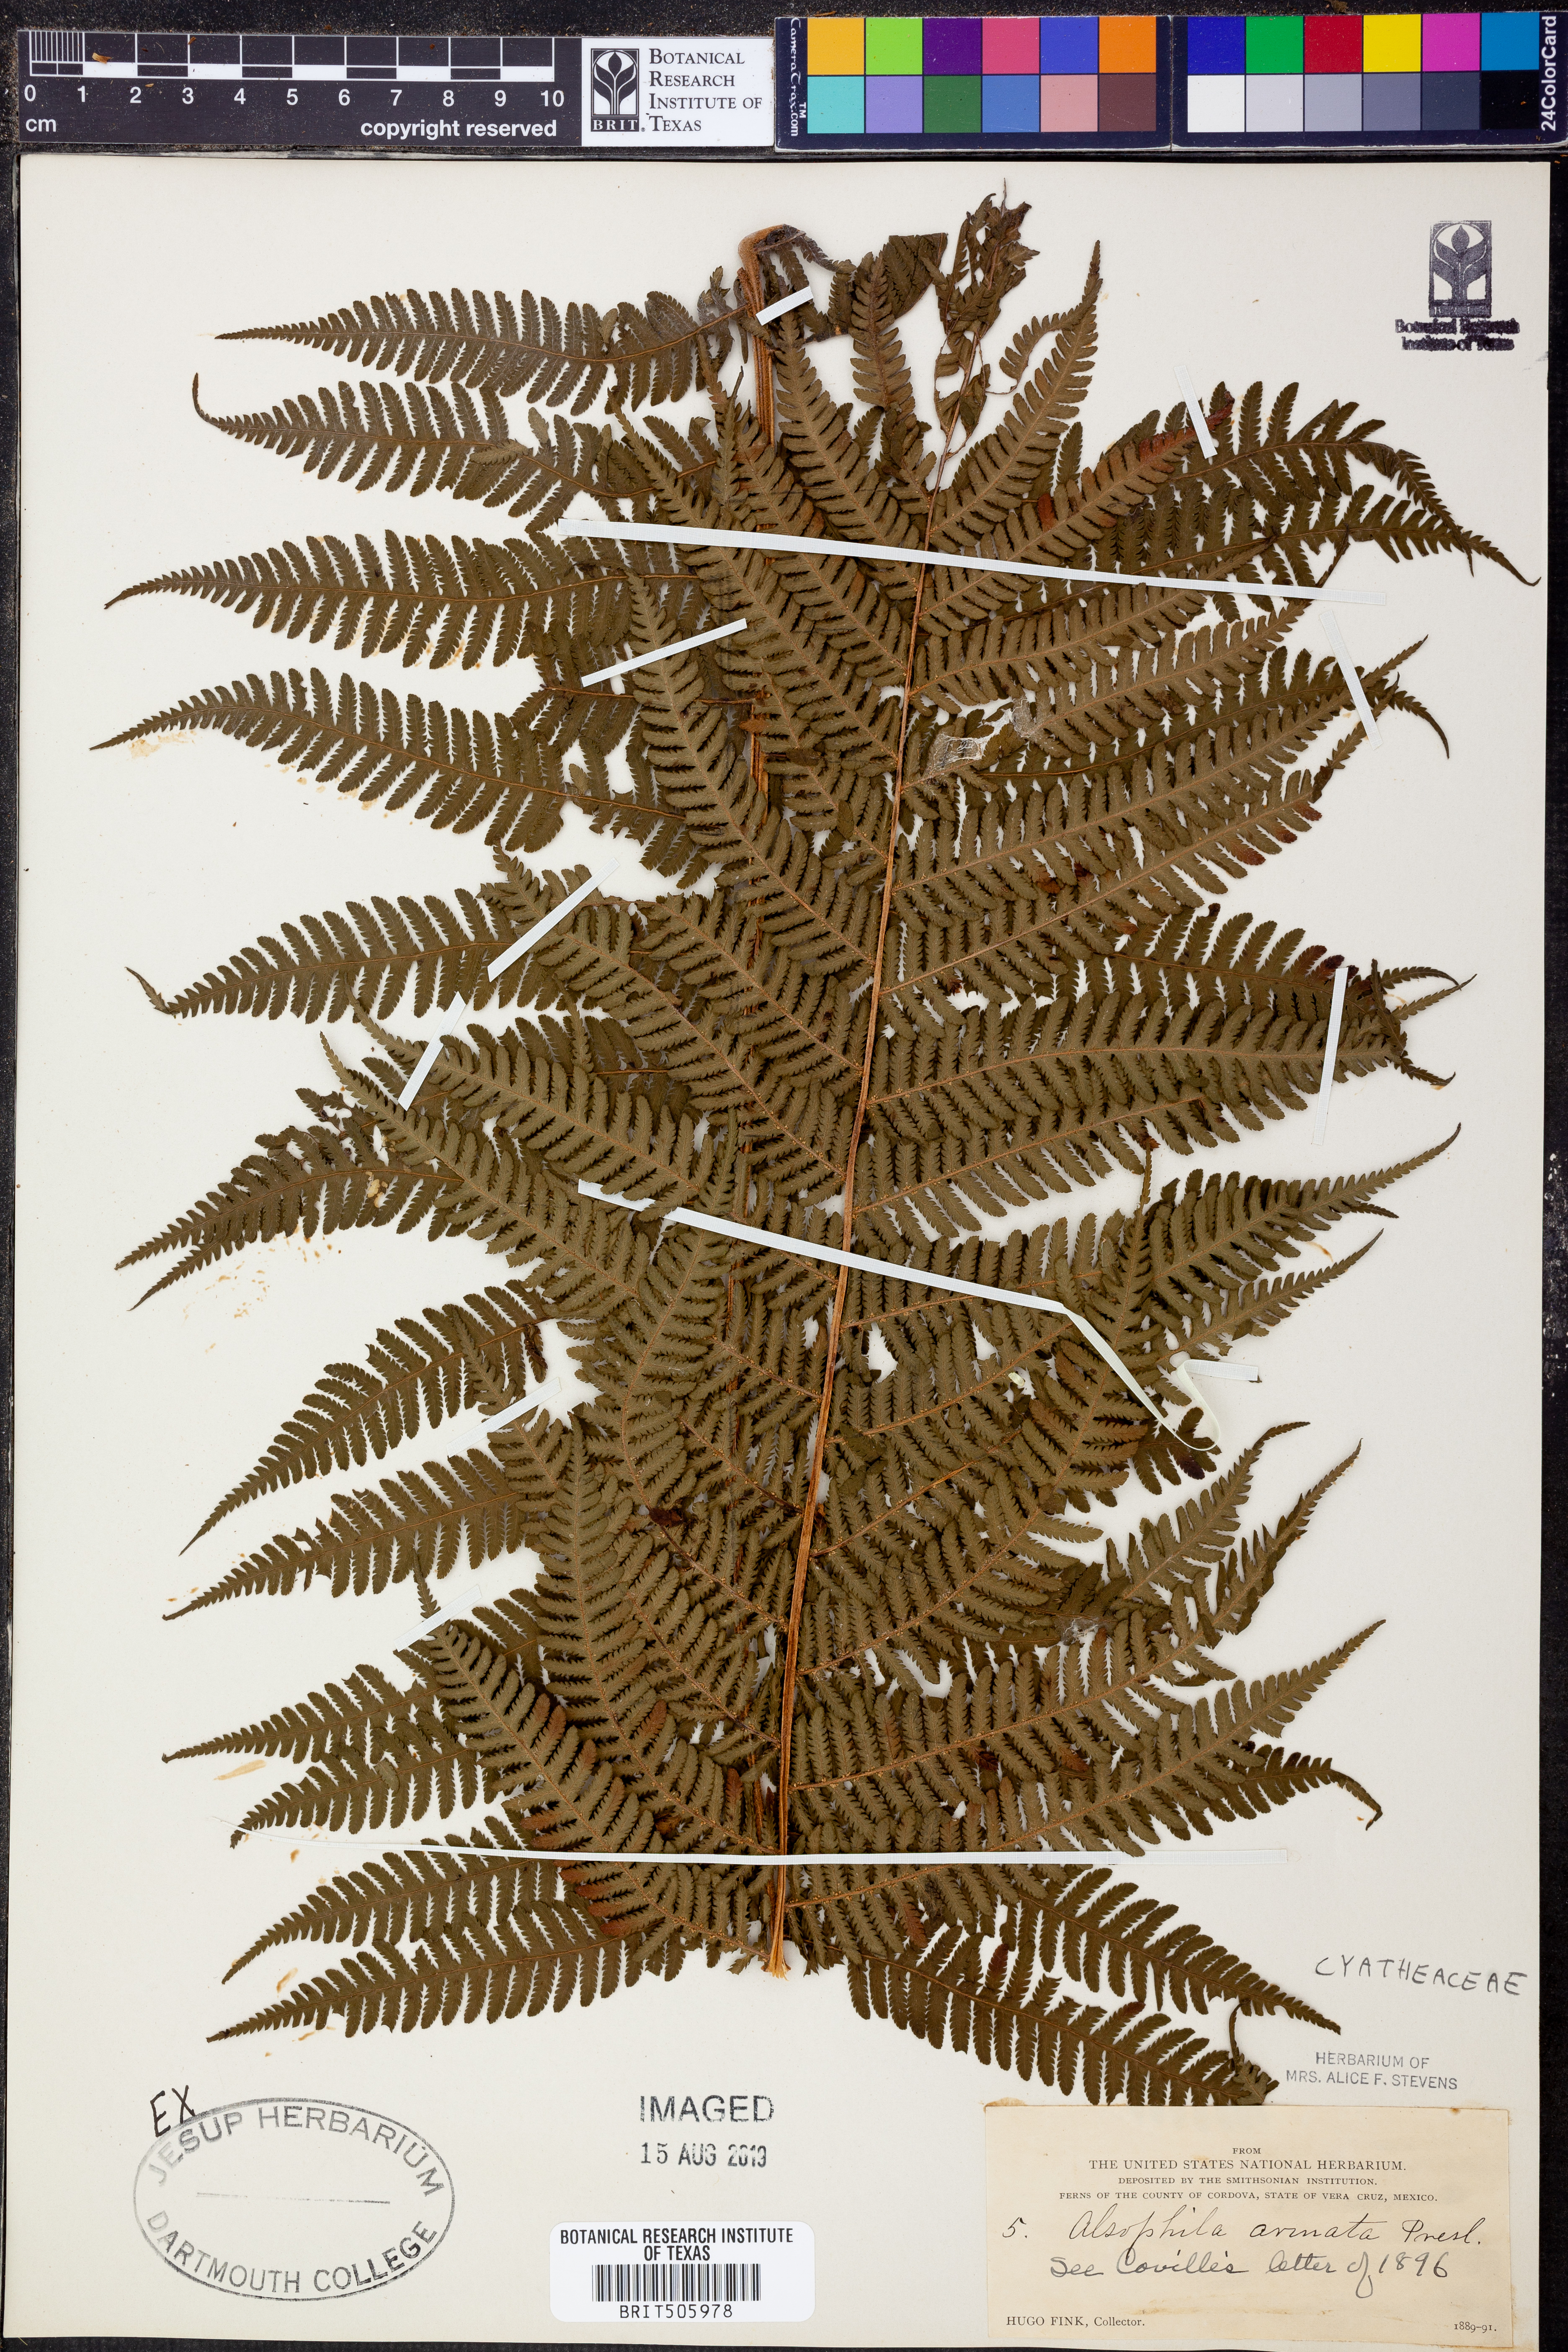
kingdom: Plantae
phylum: Tracheophyta
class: Polypodiopsida
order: Cyatheales
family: Cyatheaceae
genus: Cyathea
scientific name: Cyathea armata
